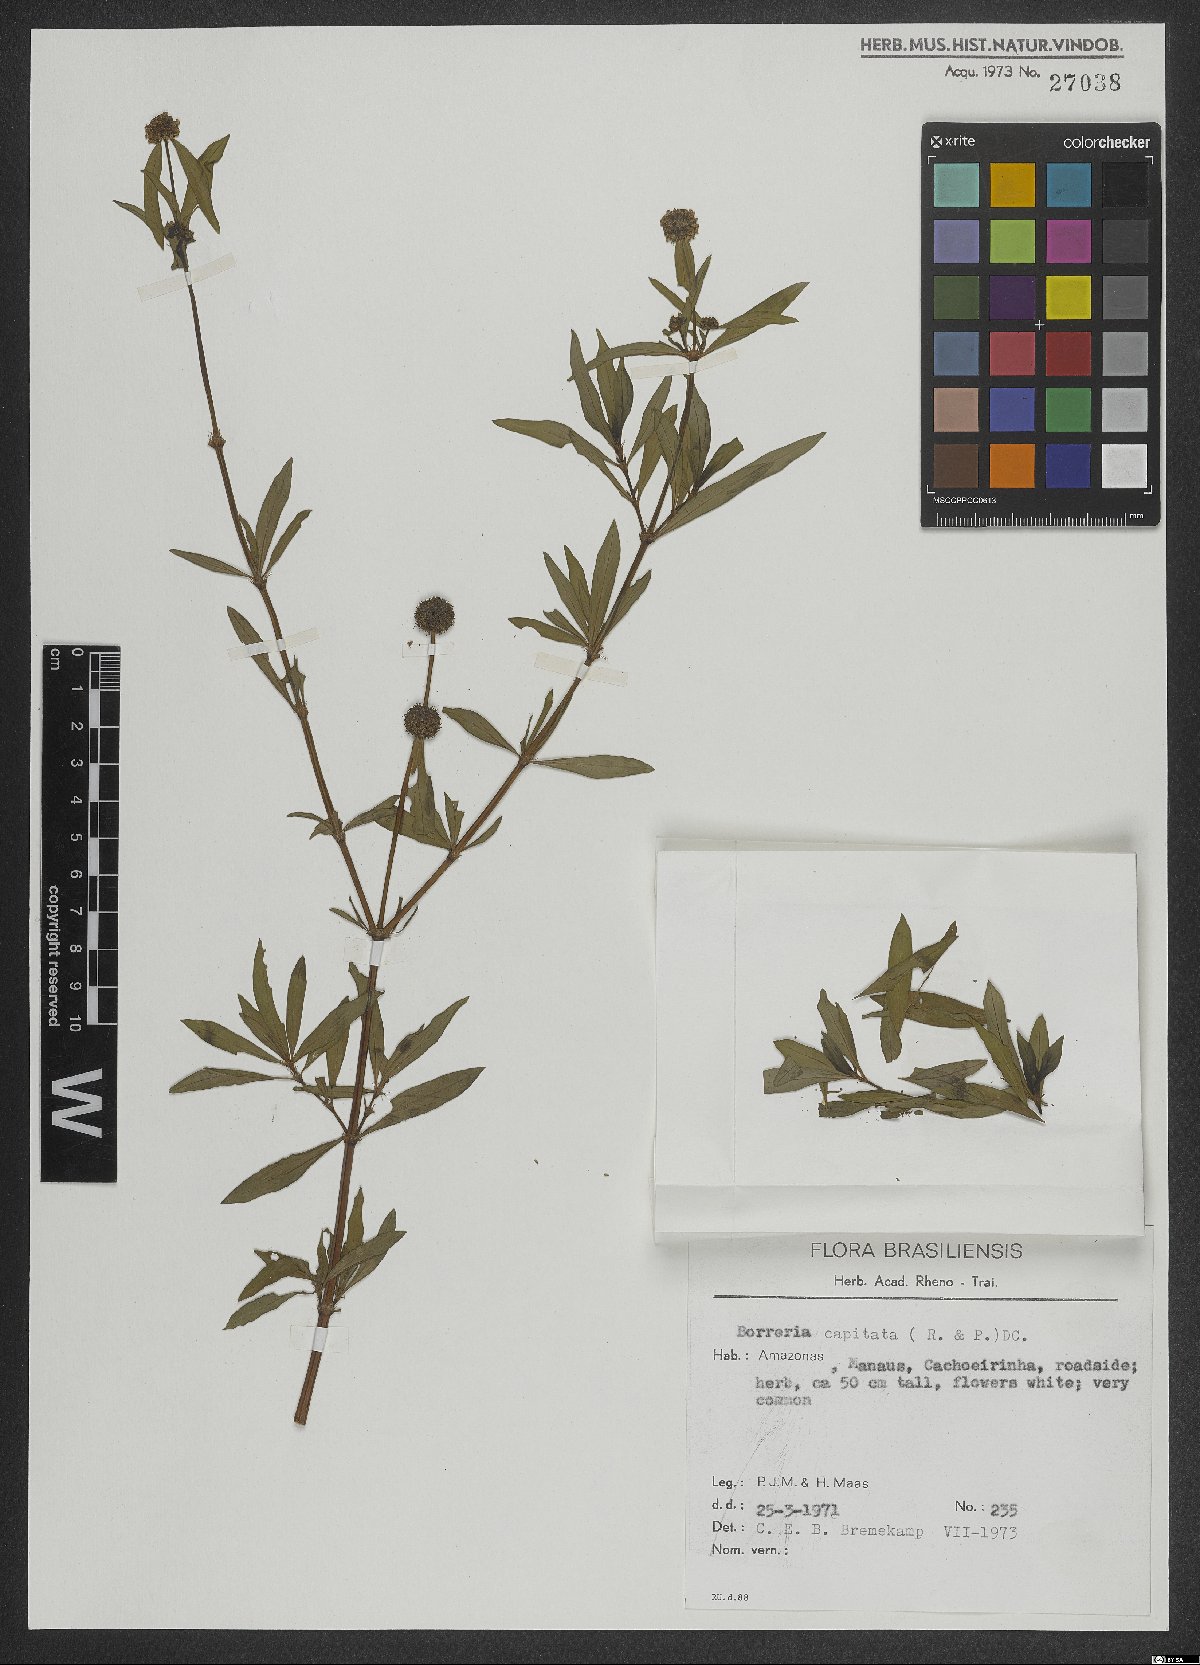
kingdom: Plantae
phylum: Tracheophyta
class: Magnoliopsida
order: Gentianales
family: Rubiaceae
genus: Spermacoce
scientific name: Spermacoce capitata
